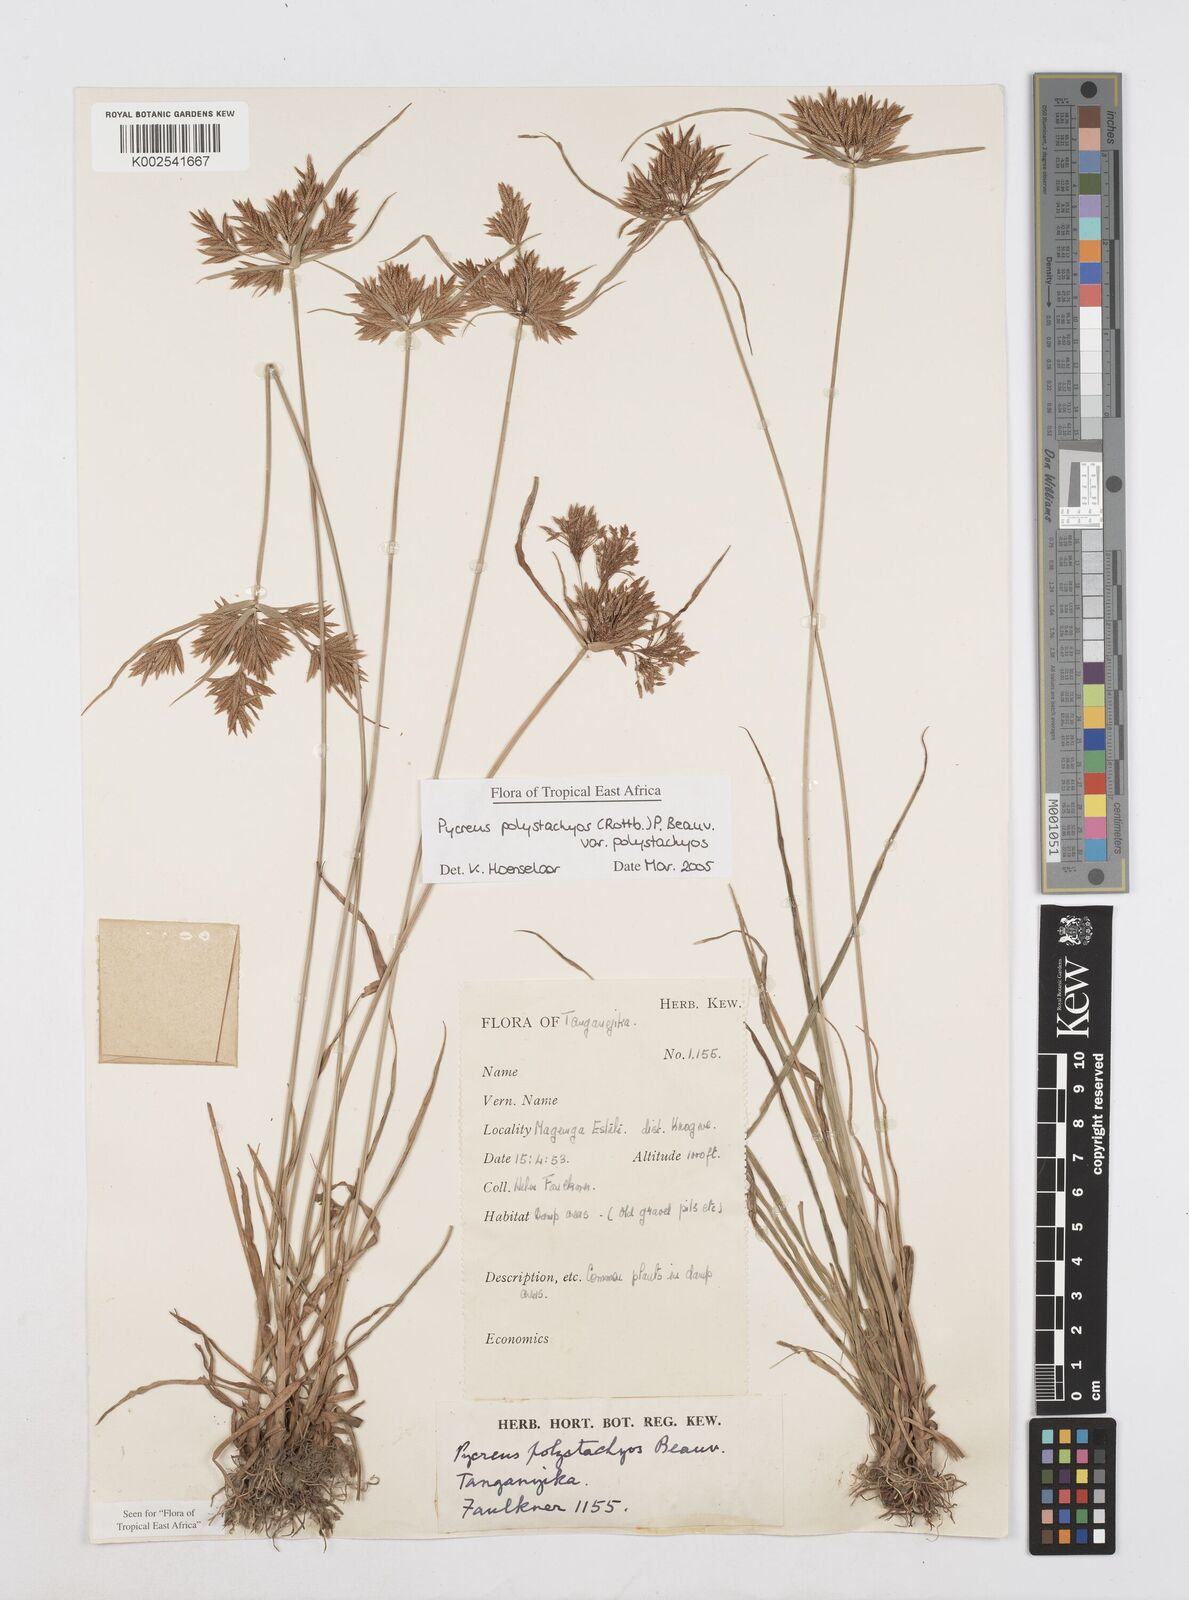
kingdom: Plantae
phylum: Tracheophyta
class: Liliopsida
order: Poales
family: Cyperaceae
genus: Cyperus
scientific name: Cyperus polystachyos
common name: Bunchy flat sedge
